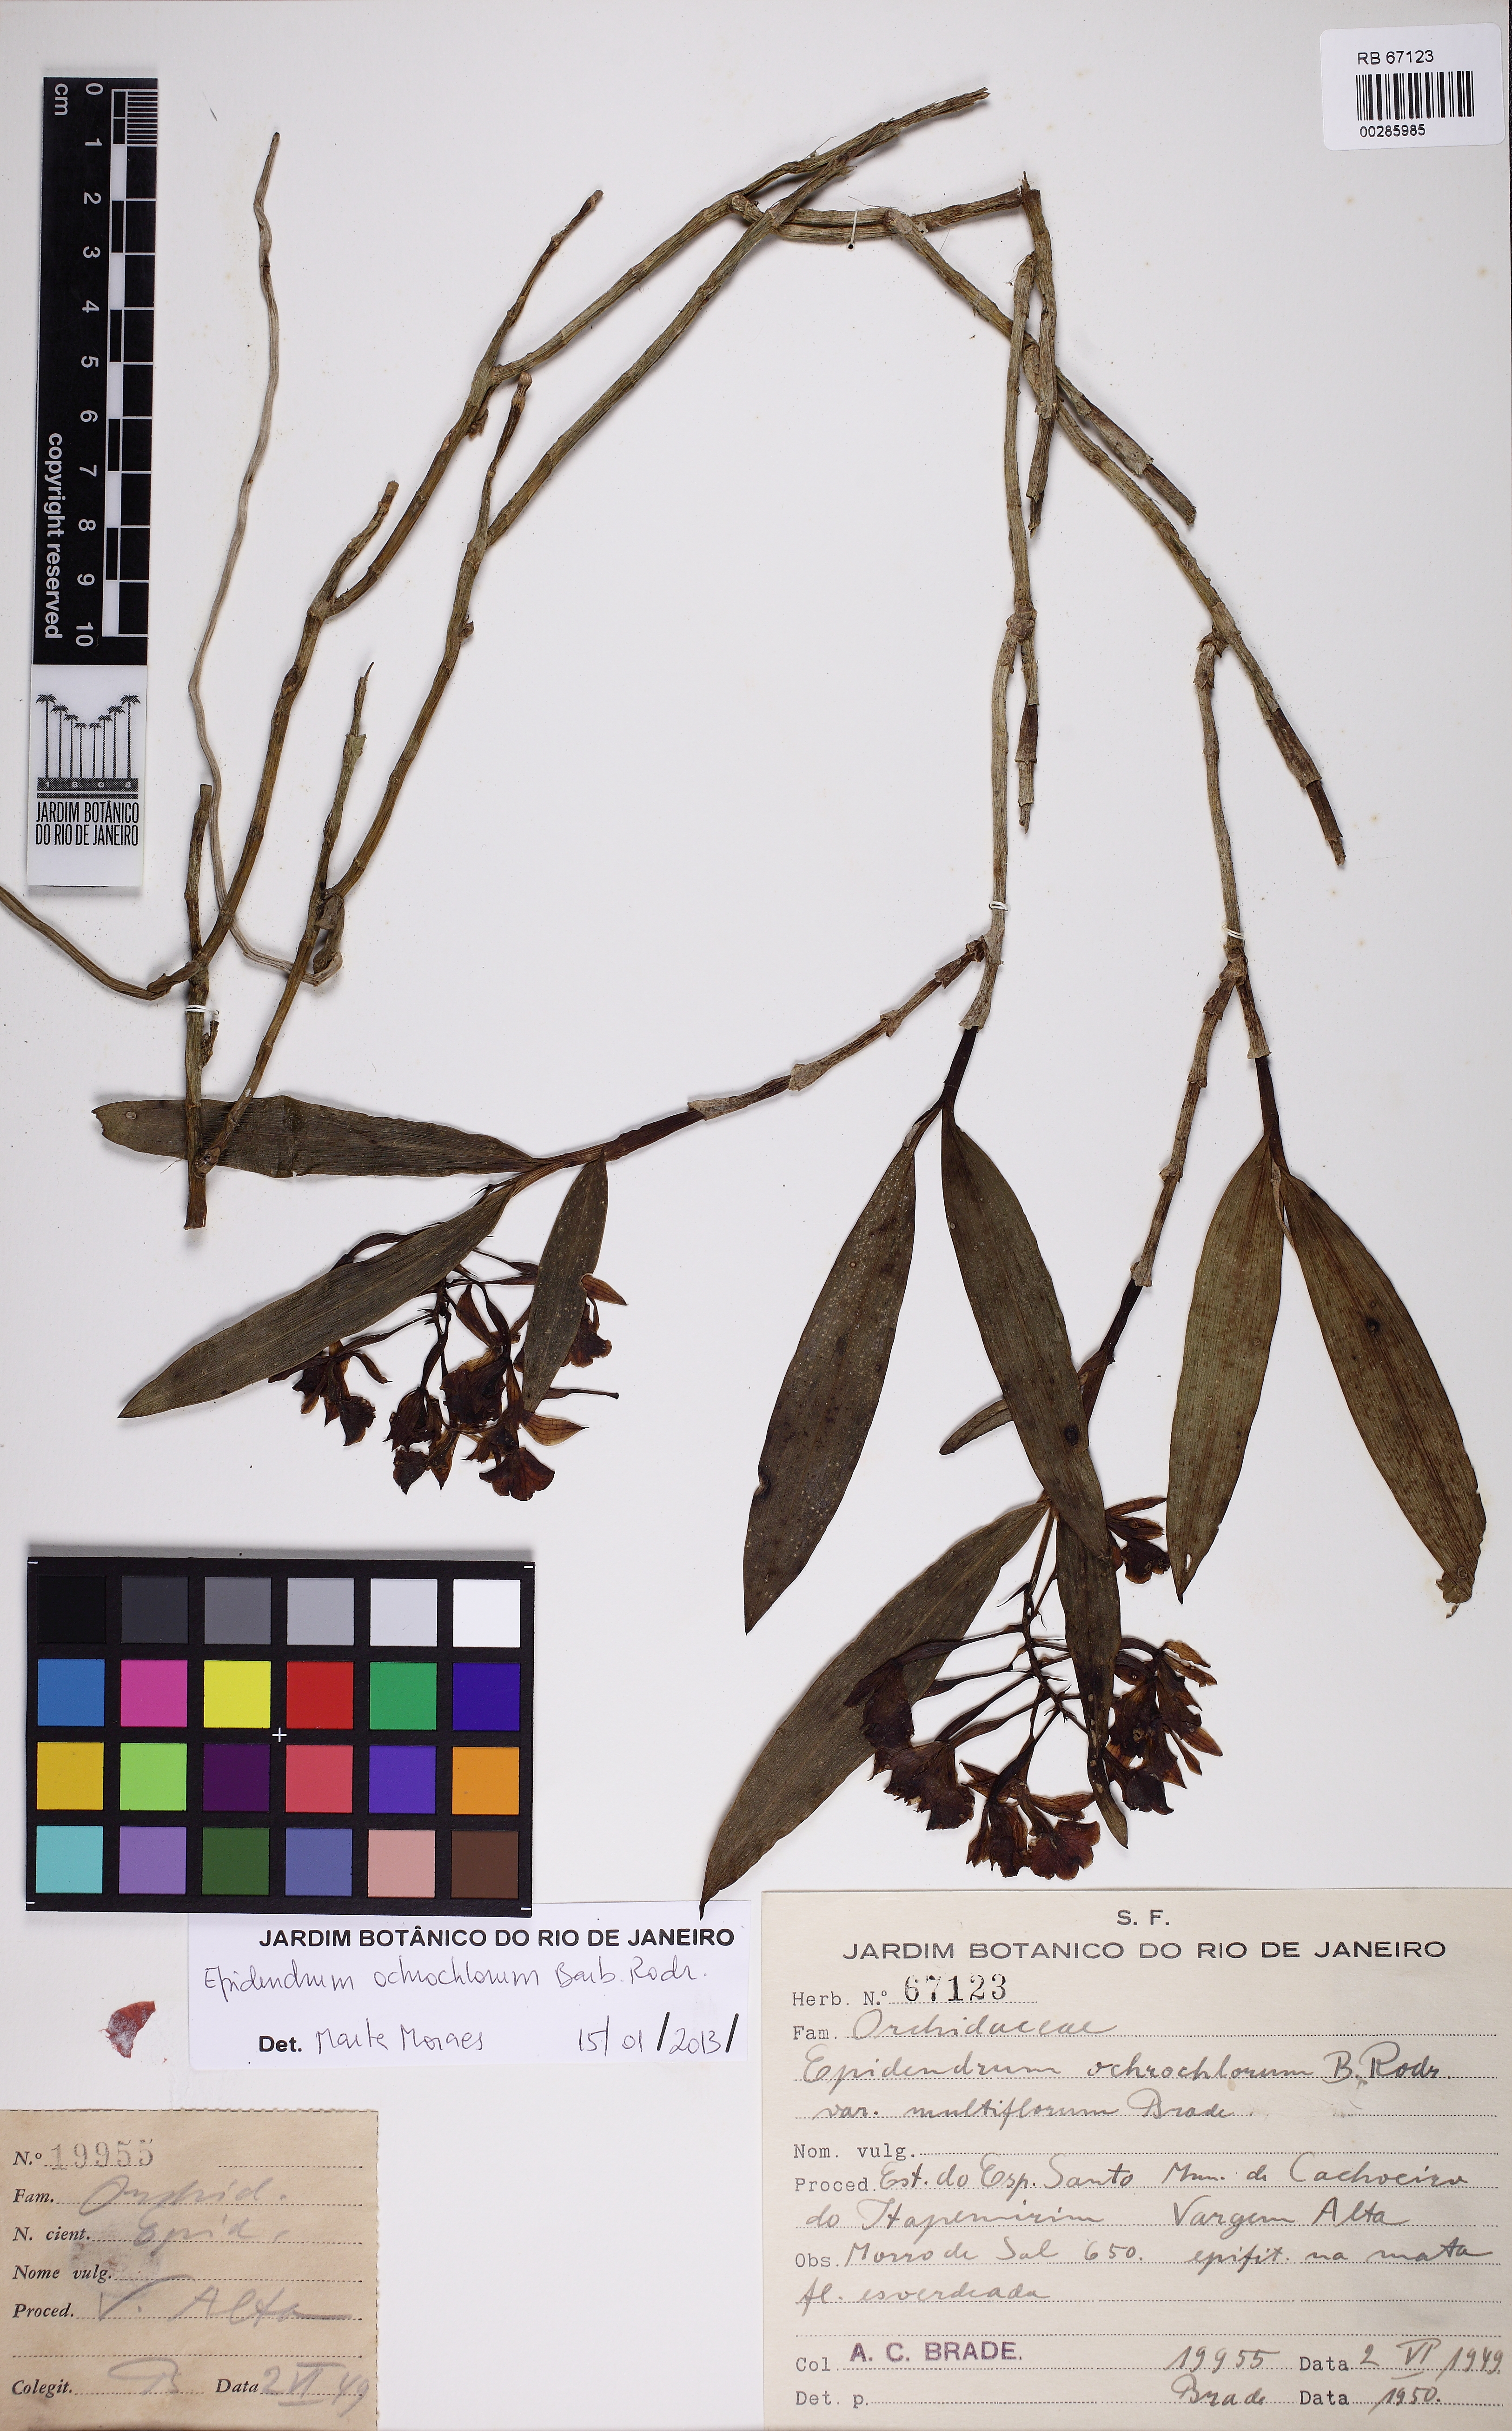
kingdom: Plantae
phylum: Tracheophyta
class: Liliopsida
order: Asparagales
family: Orchidaceae
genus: Epidendrum
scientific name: Epidendrum proligerum
